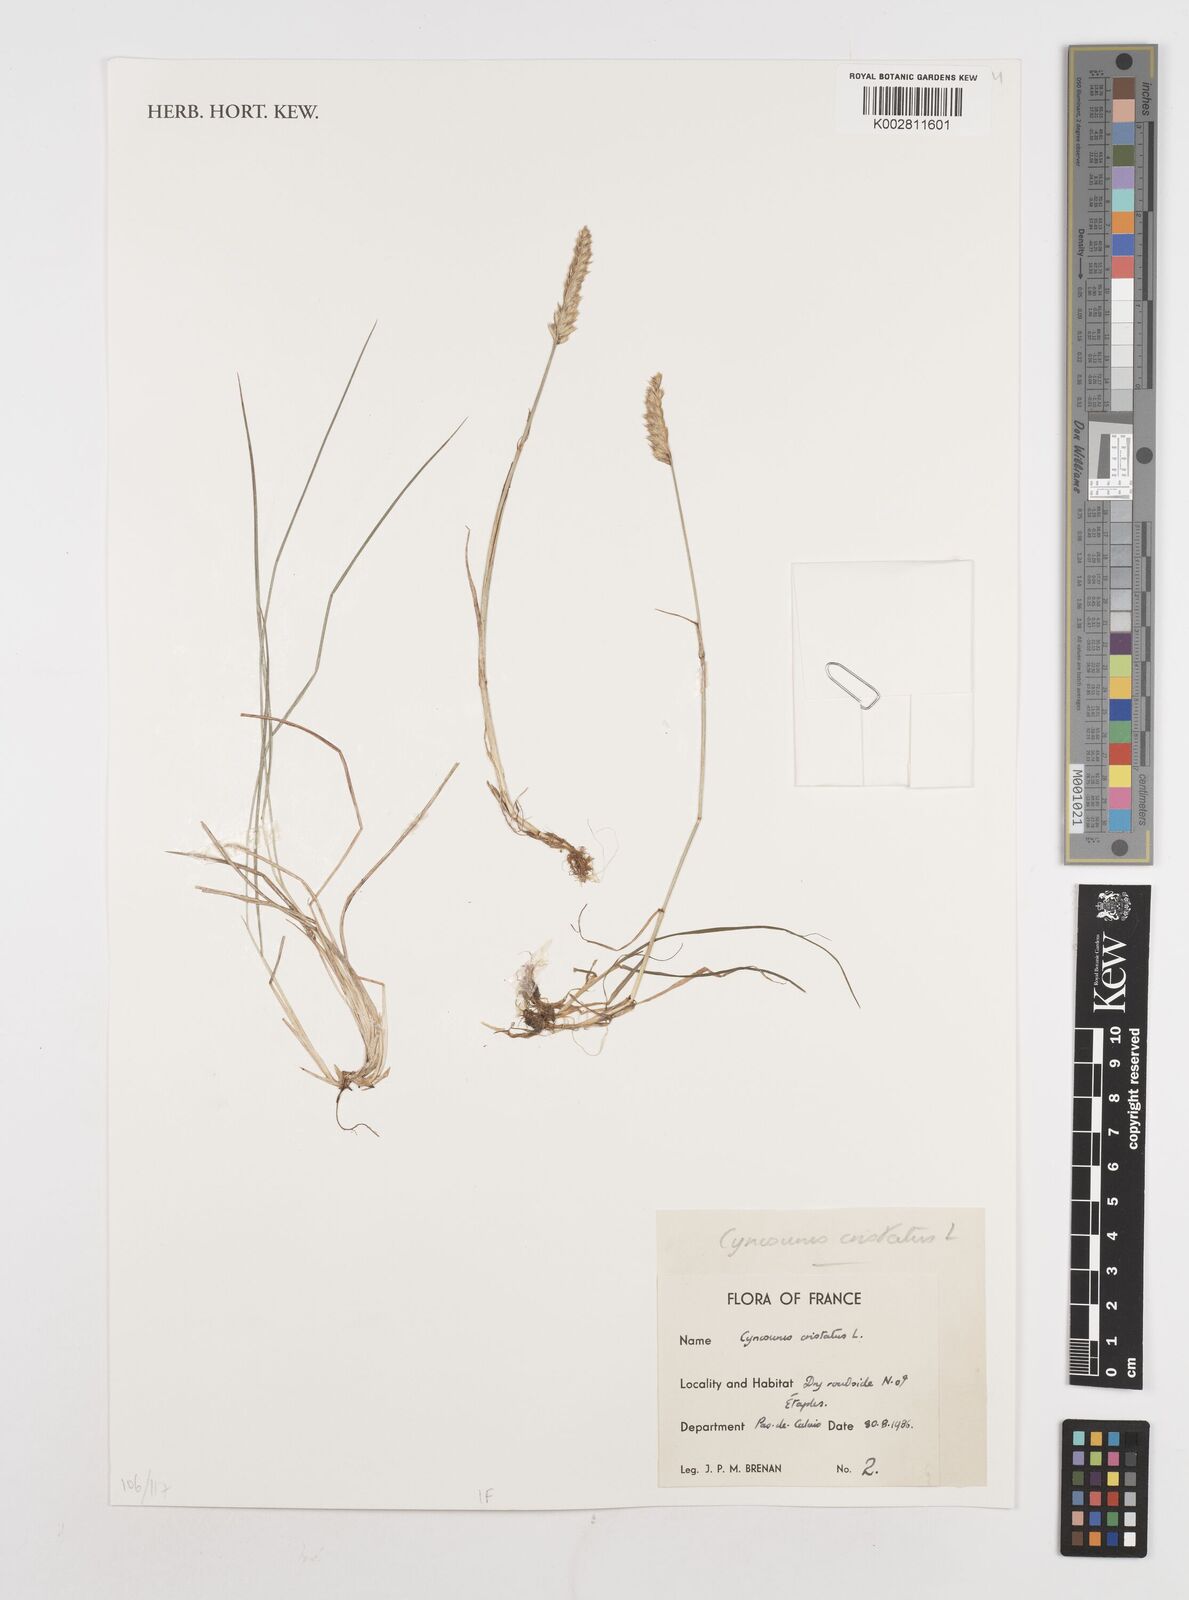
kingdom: Plantae
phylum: Tracheophyta
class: Liliopsida
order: Poales
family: Poaceae
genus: Cynosurus
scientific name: Cynosurus cristatus
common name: Crested dog's-tail
